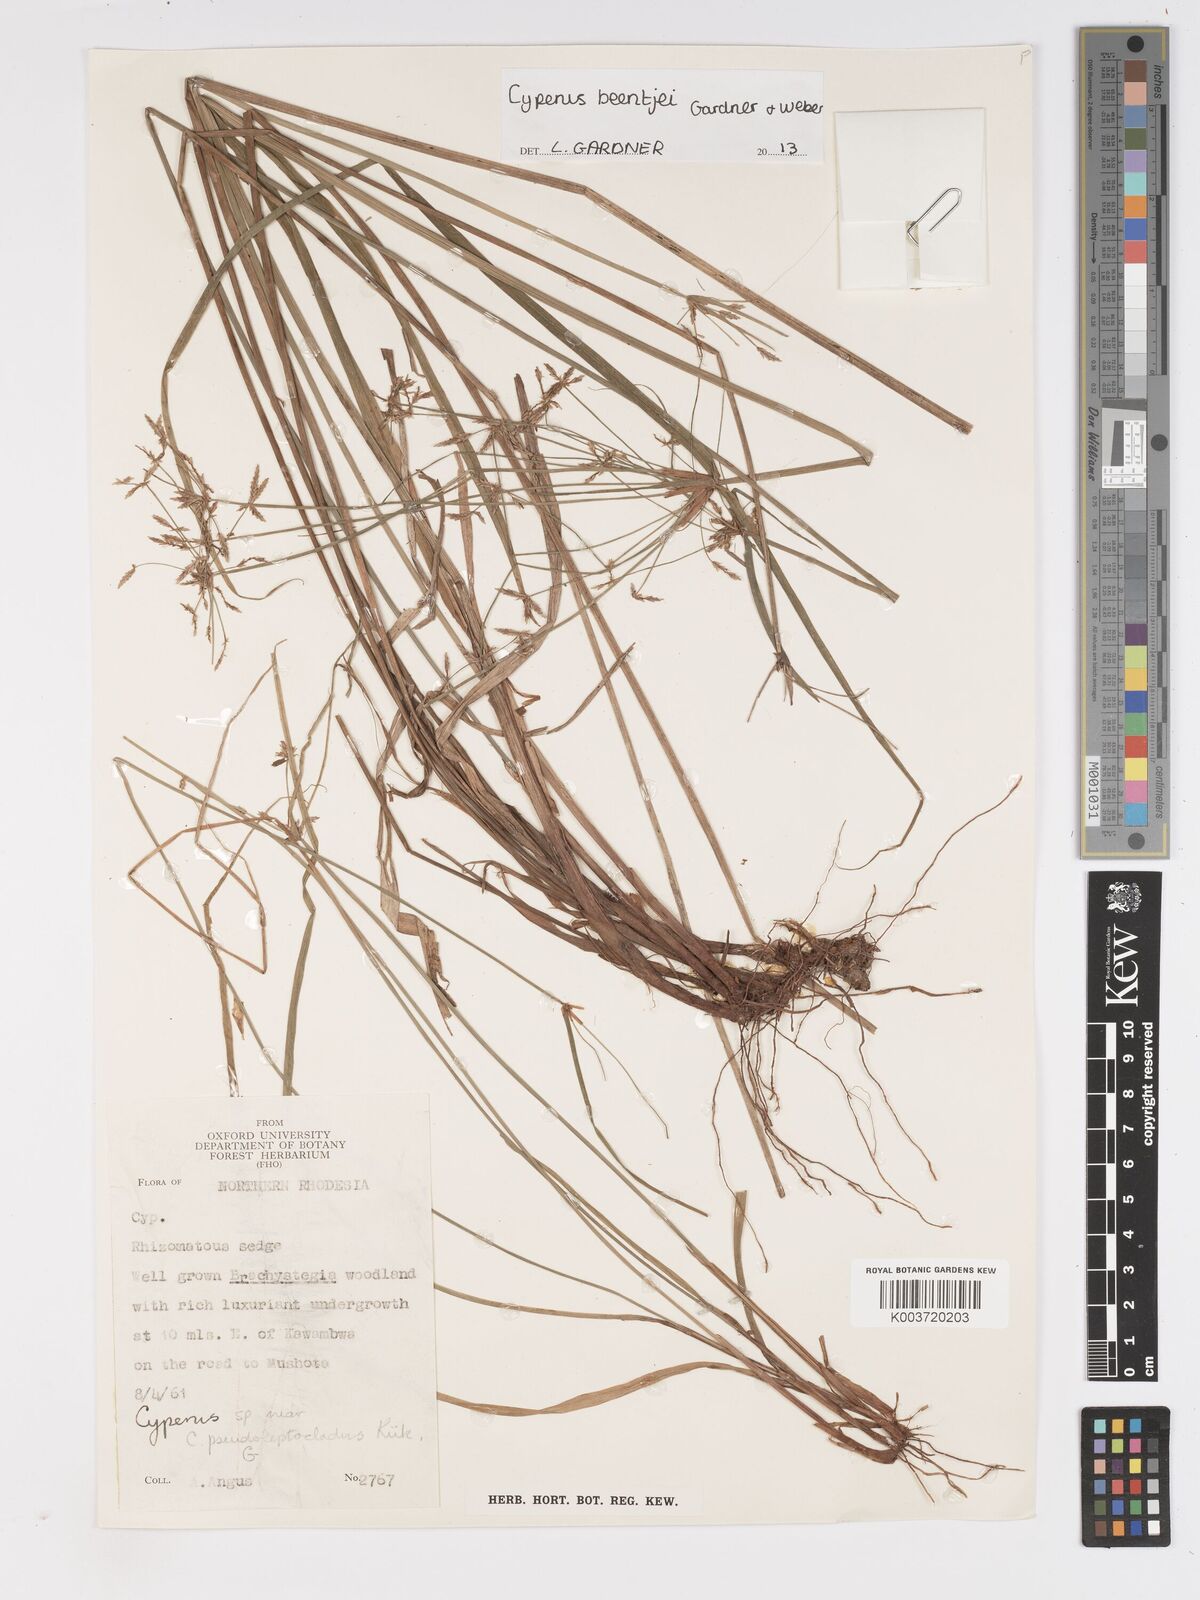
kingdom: Plantae
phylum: Tracheophyta
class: Liliopsida
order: Poales
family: Cyperaceae
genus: Cyperus
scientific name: Cyperus beentjei
